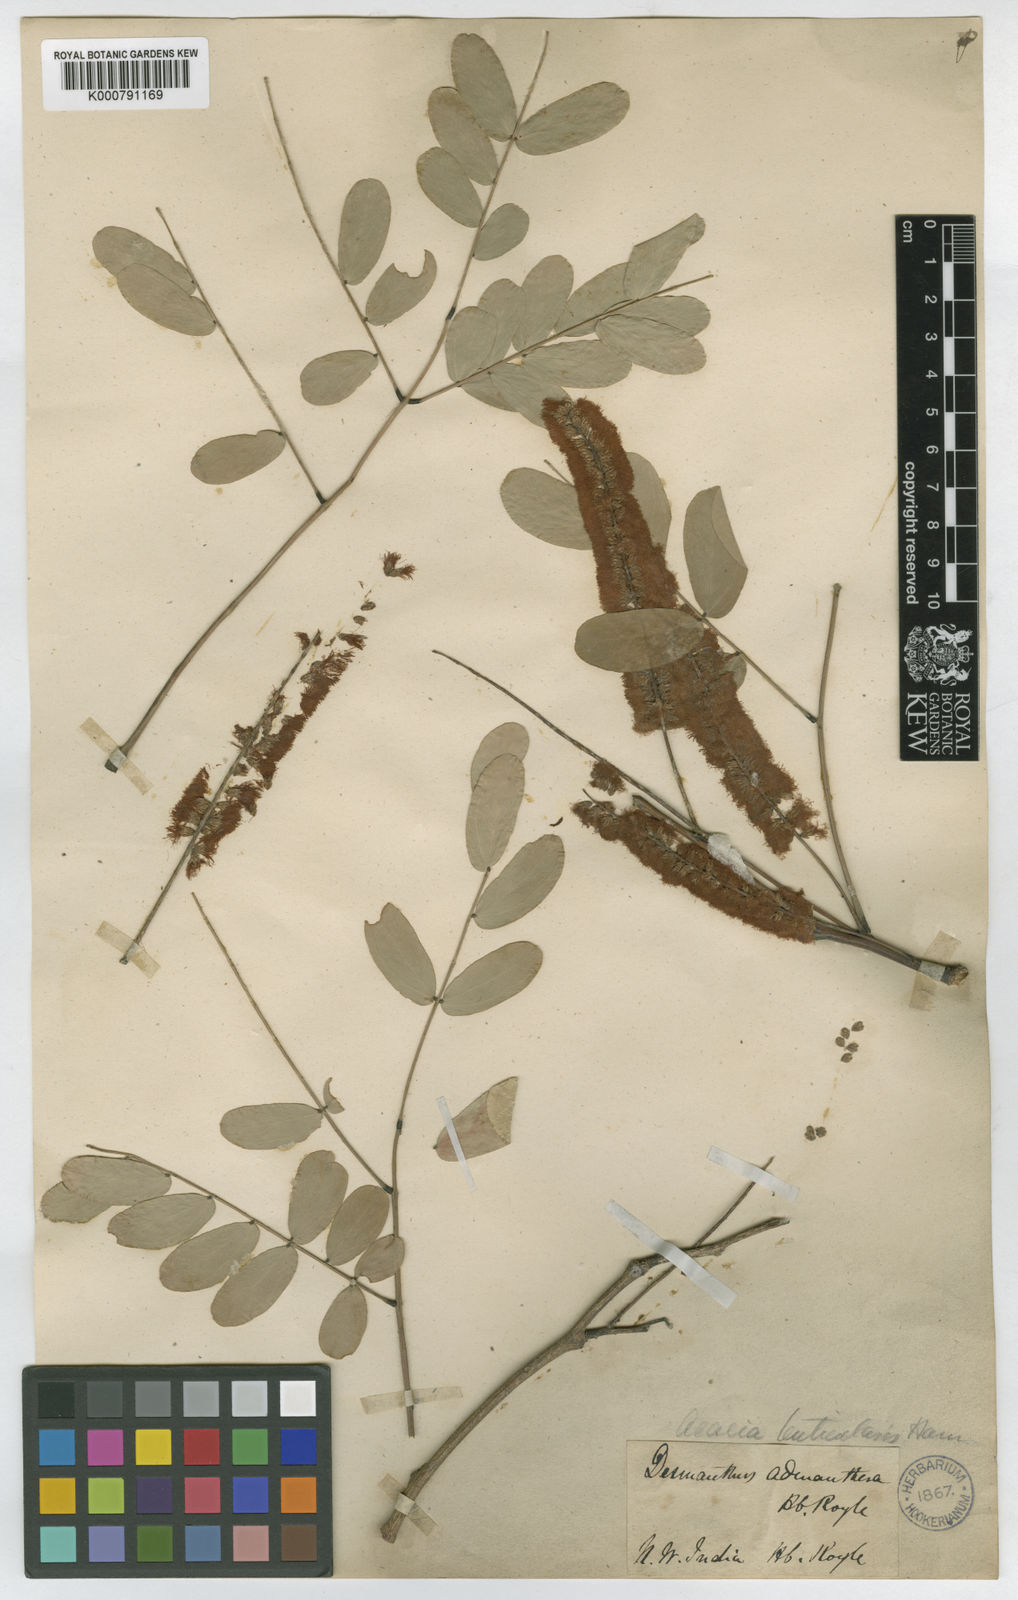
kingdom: Plantae
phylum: Tracheophyta
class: Magnoliopsida
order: Fabales
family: Fabaceae
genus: Acacia
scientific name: Acacia
